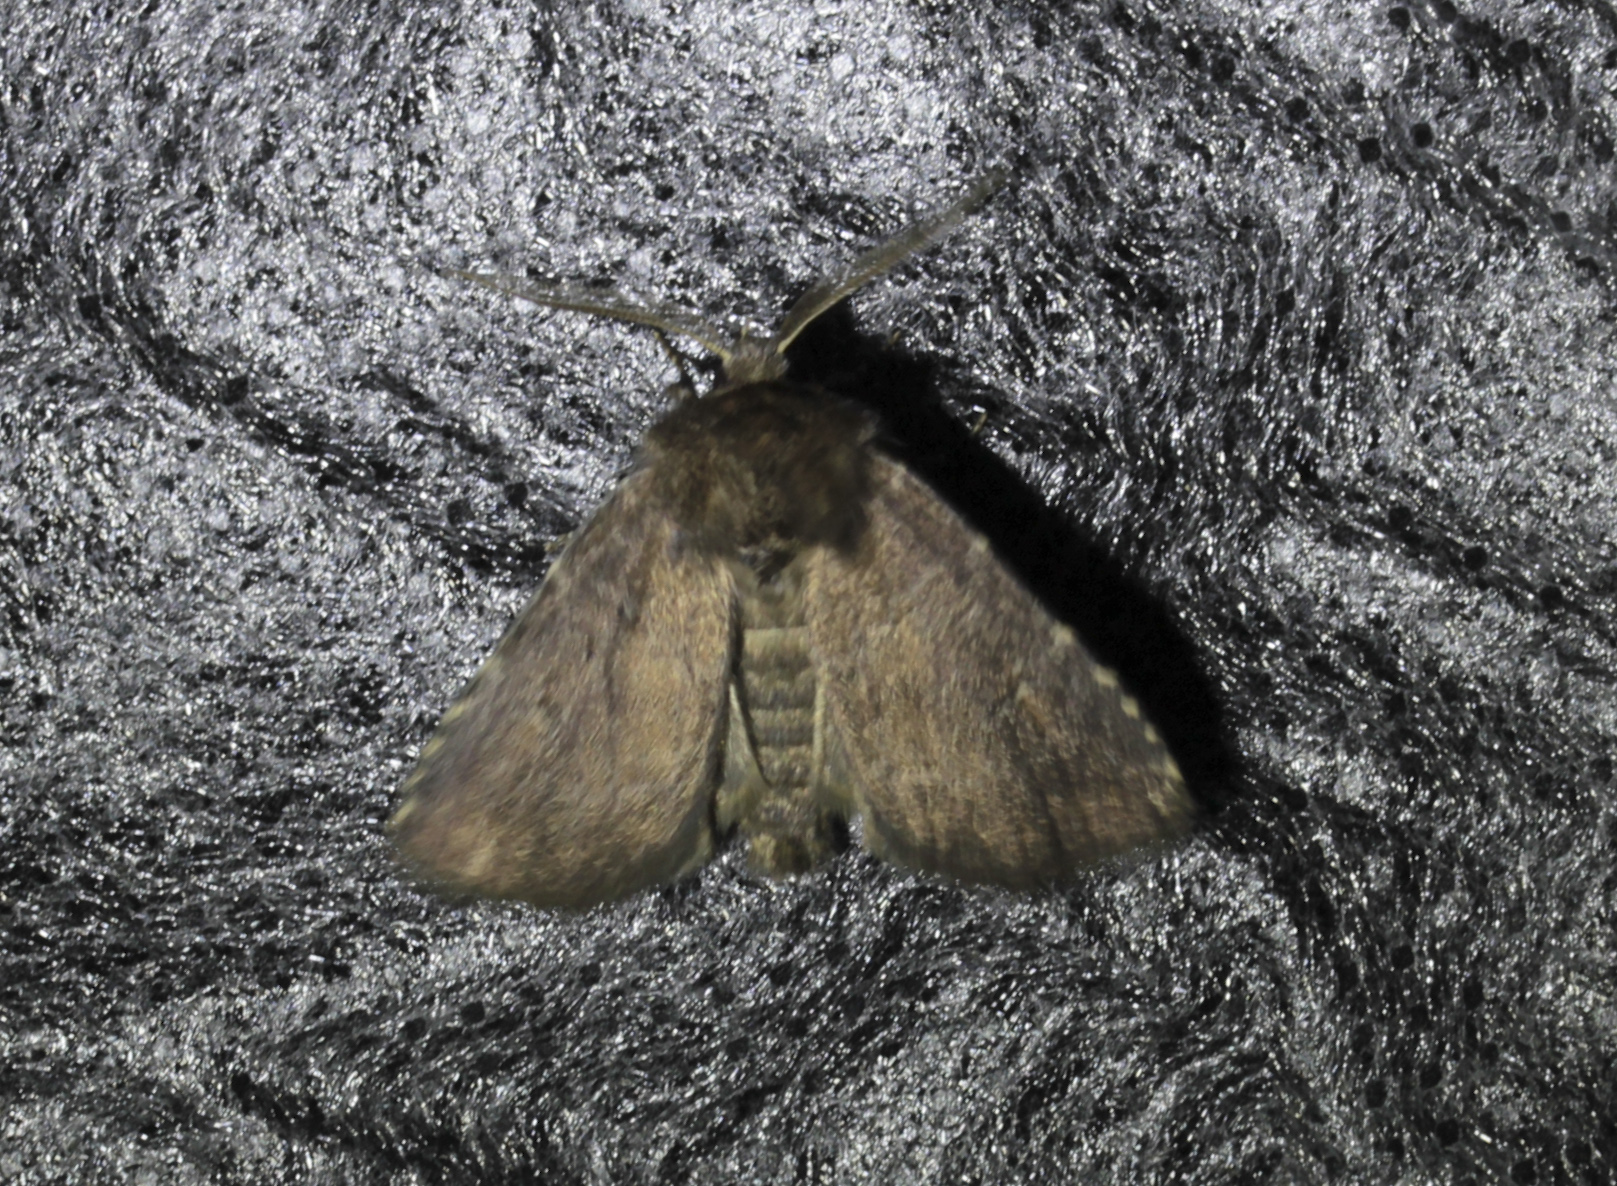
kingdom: Animalia
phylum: Arthropoda
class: Insecta
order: Lepidoptera
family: Noctuidae
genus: Charanyca
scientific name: Charanyca ferruginea
